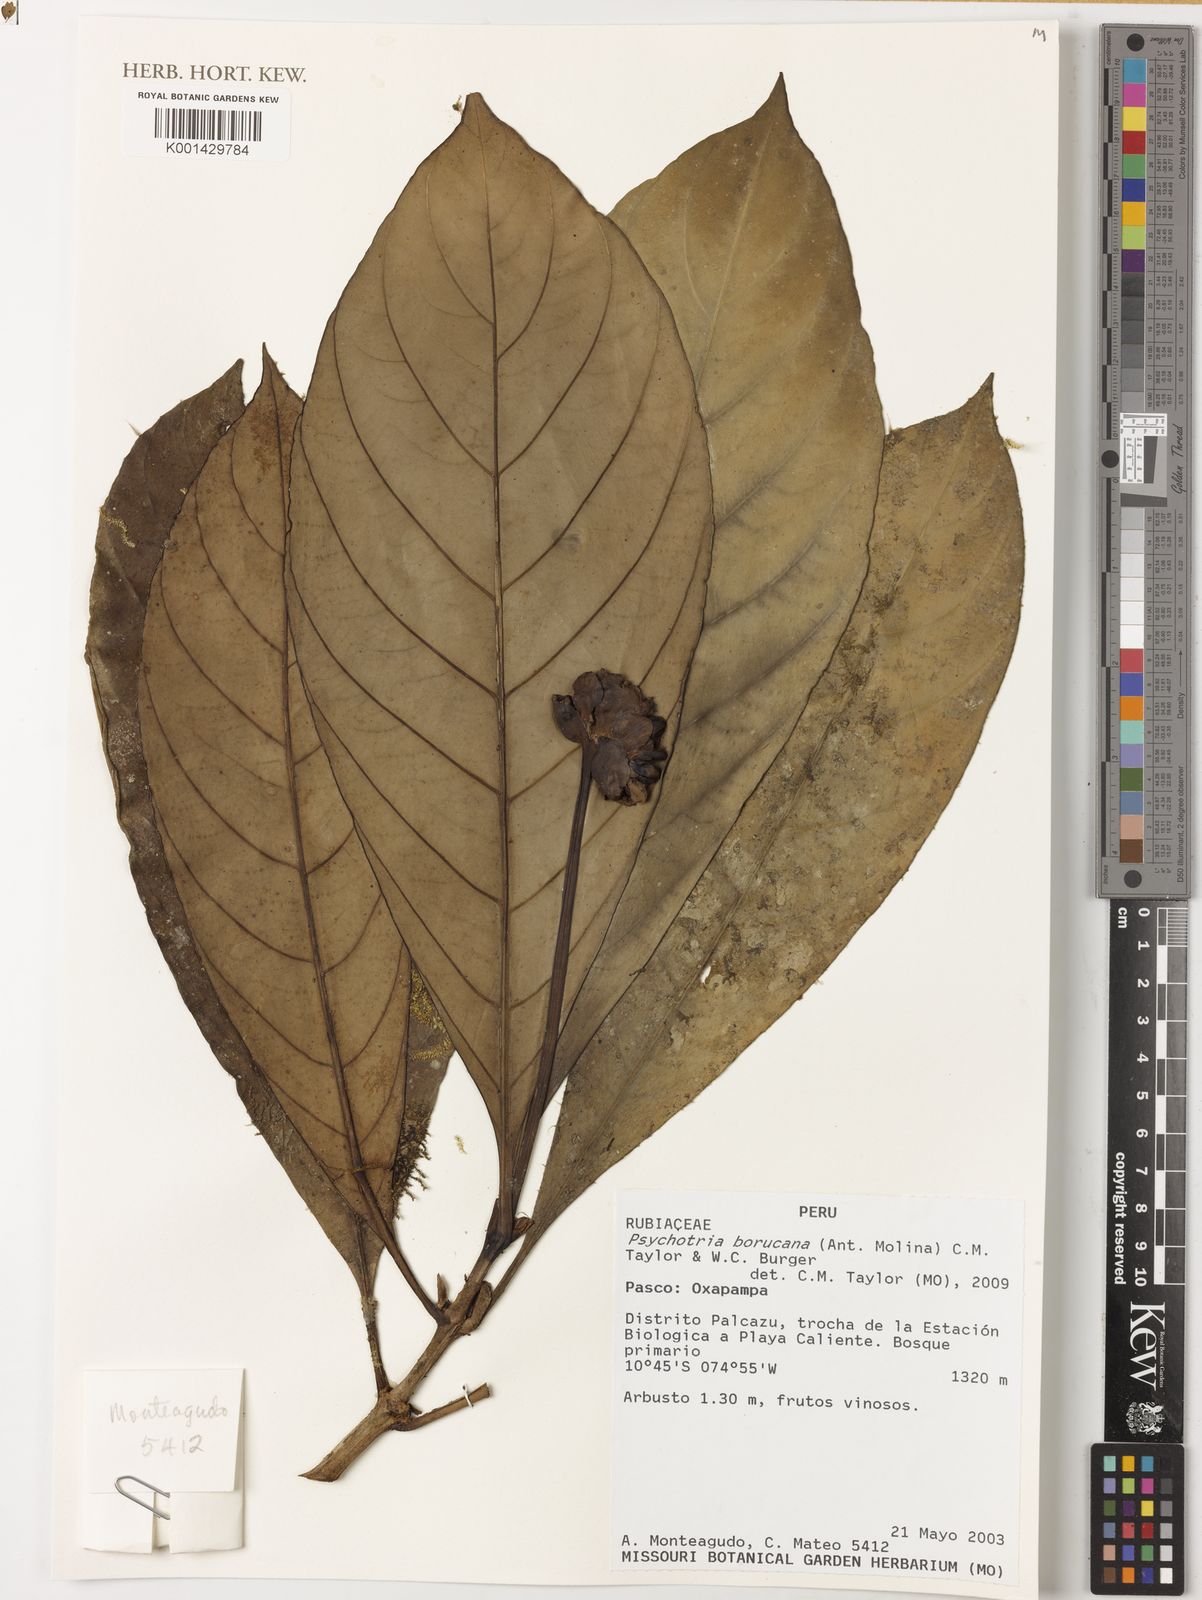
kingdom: Plantae
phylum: Tracheophyta
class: Magnoliopsida
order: Gentianales
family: Rubiaceae
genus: Carapichea
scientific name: Carapichea affinis
